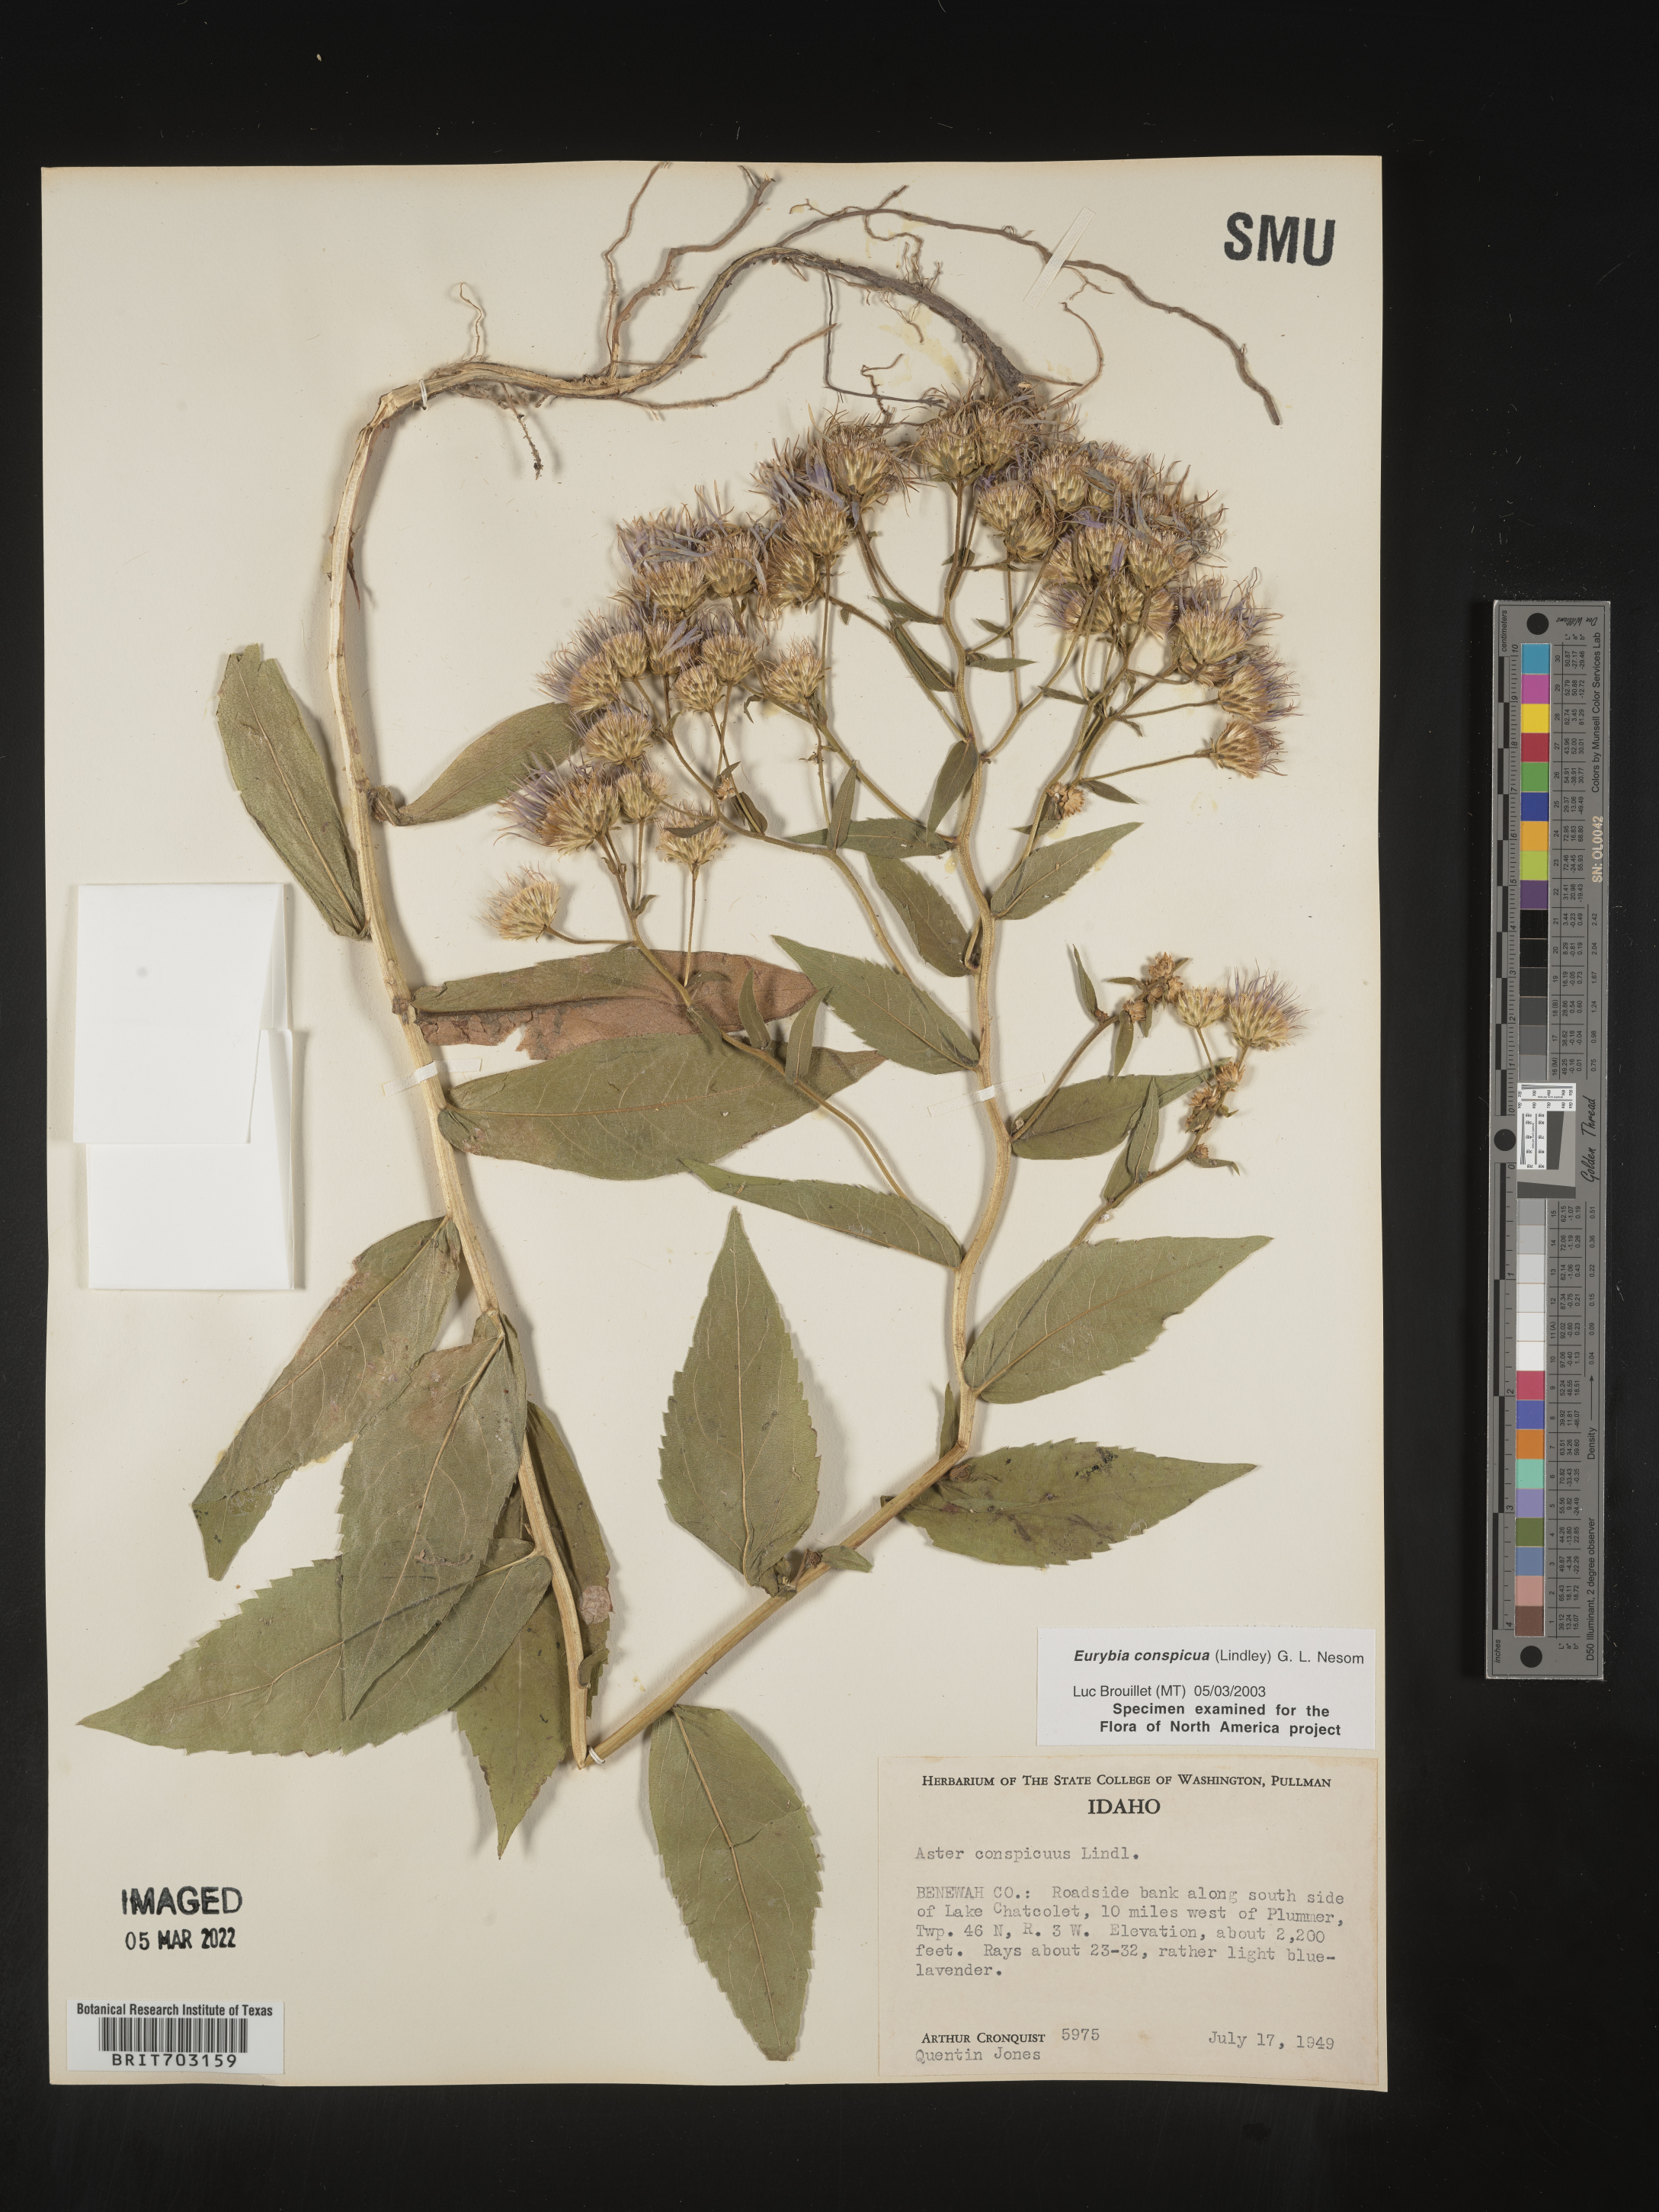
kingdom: Plantae
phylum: Tracheophyta
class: Magnoliopsida
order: Asterales
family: Asteraceae
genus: Eurybia
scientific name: Eurybia conspicua
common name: Showy aster
